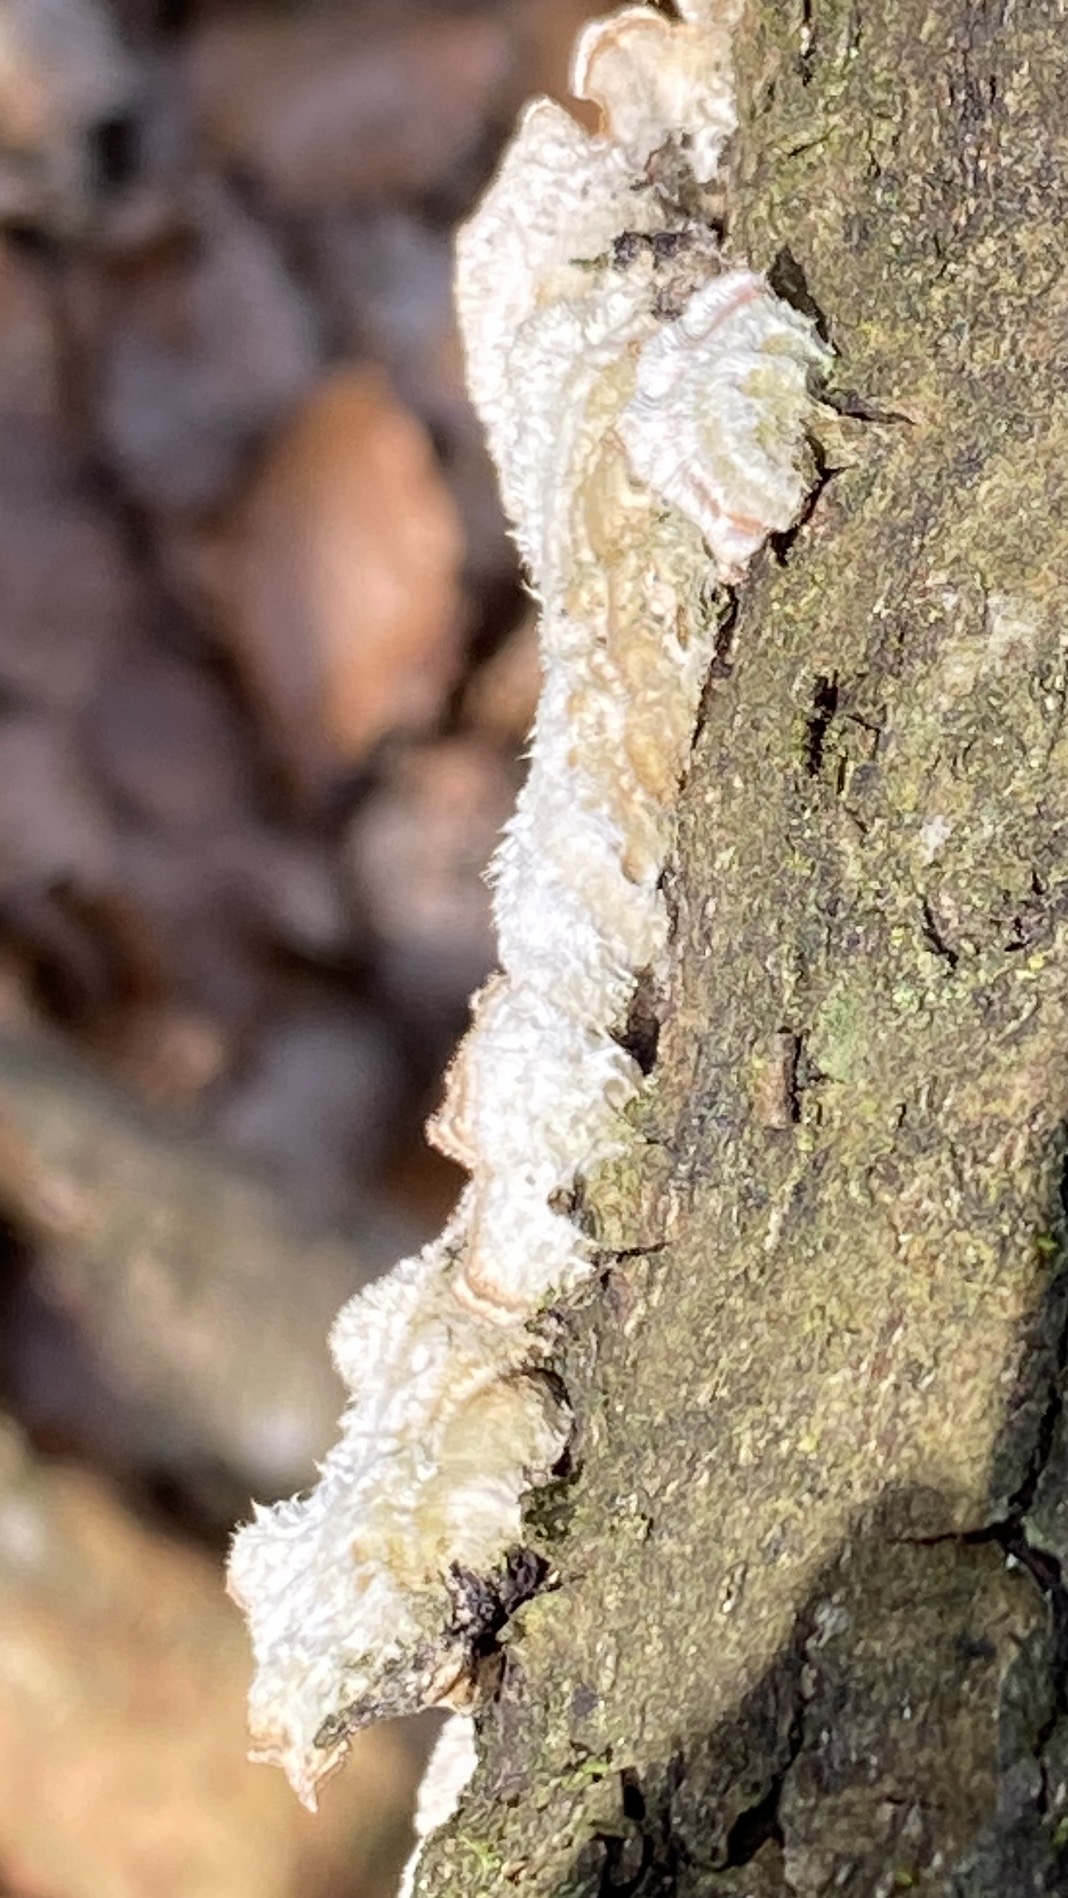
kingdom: Fungi
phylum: Basidiomycota
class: Agaricomycetes
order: Russulales
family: Stereaceae
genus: Stereum
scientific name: Stereum hirsutum
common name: håret lædersvamp
